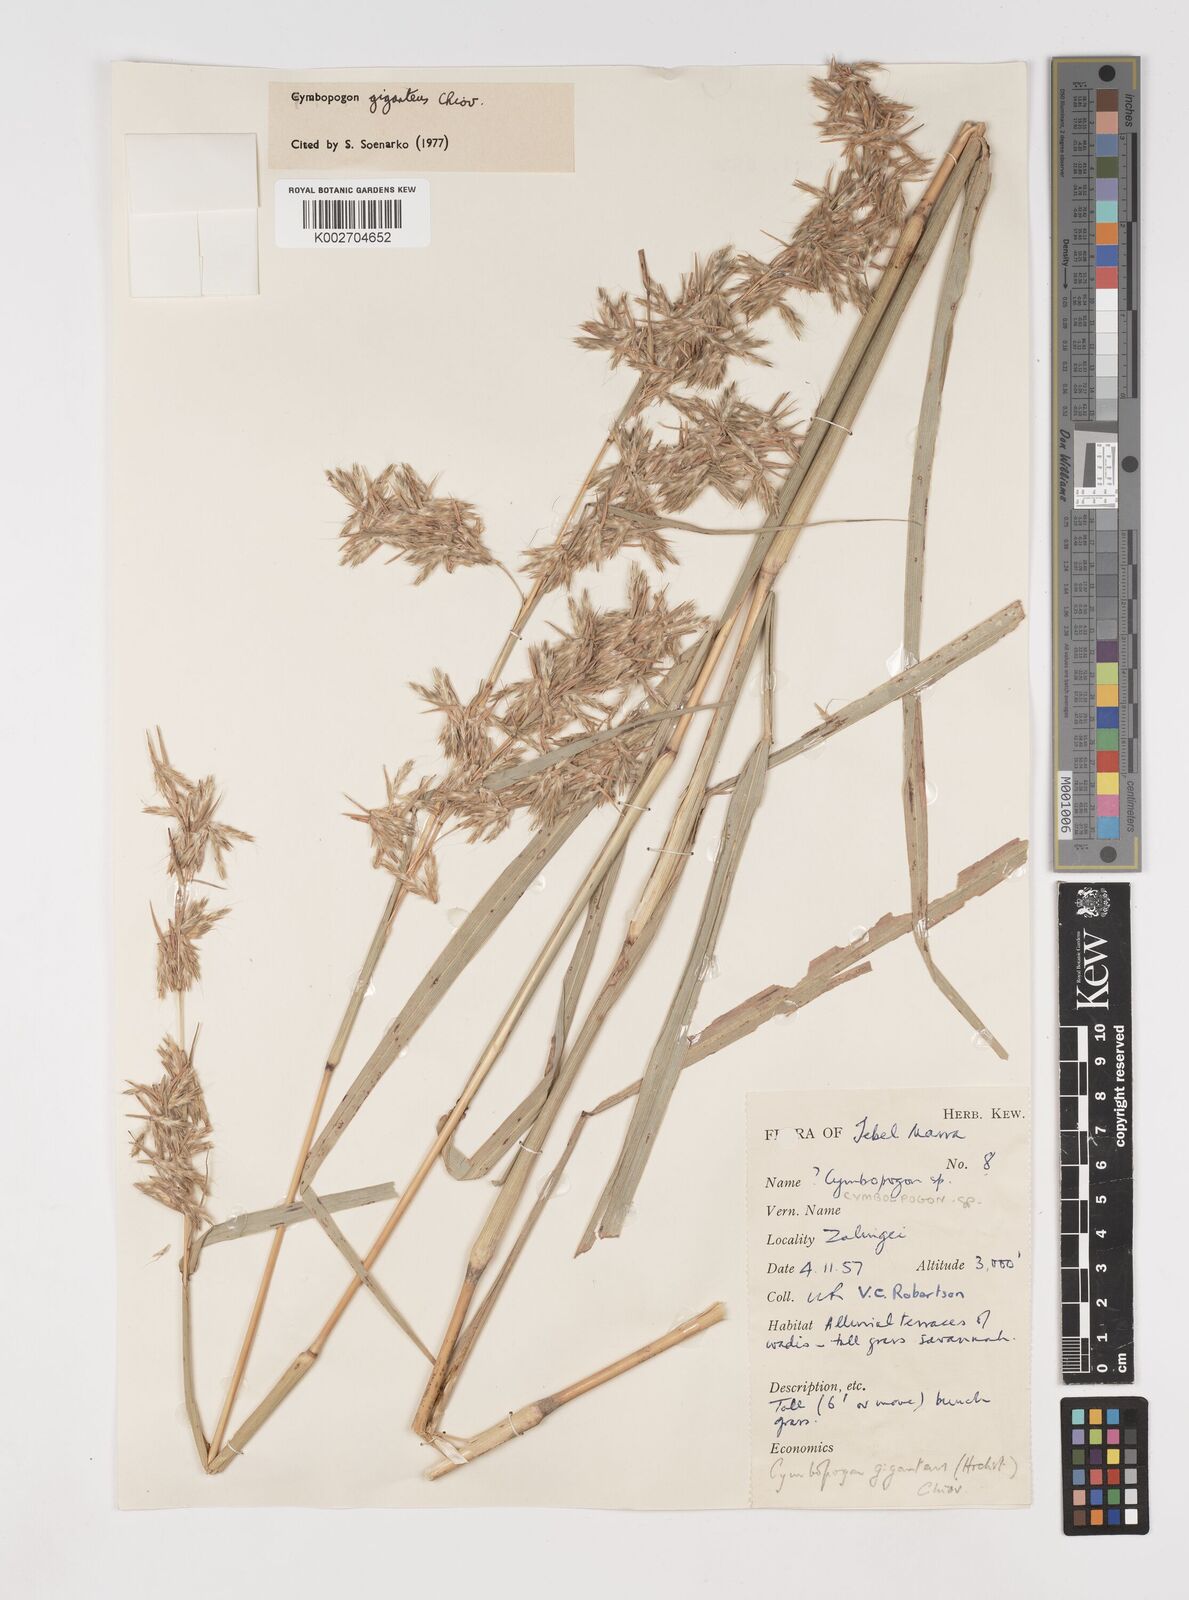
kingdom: Plantae
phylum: Tracheophyta
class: Liliopsida
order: Poales
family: Poaceae
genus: Cymbopogon
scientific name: Cymbopogon giganteus
